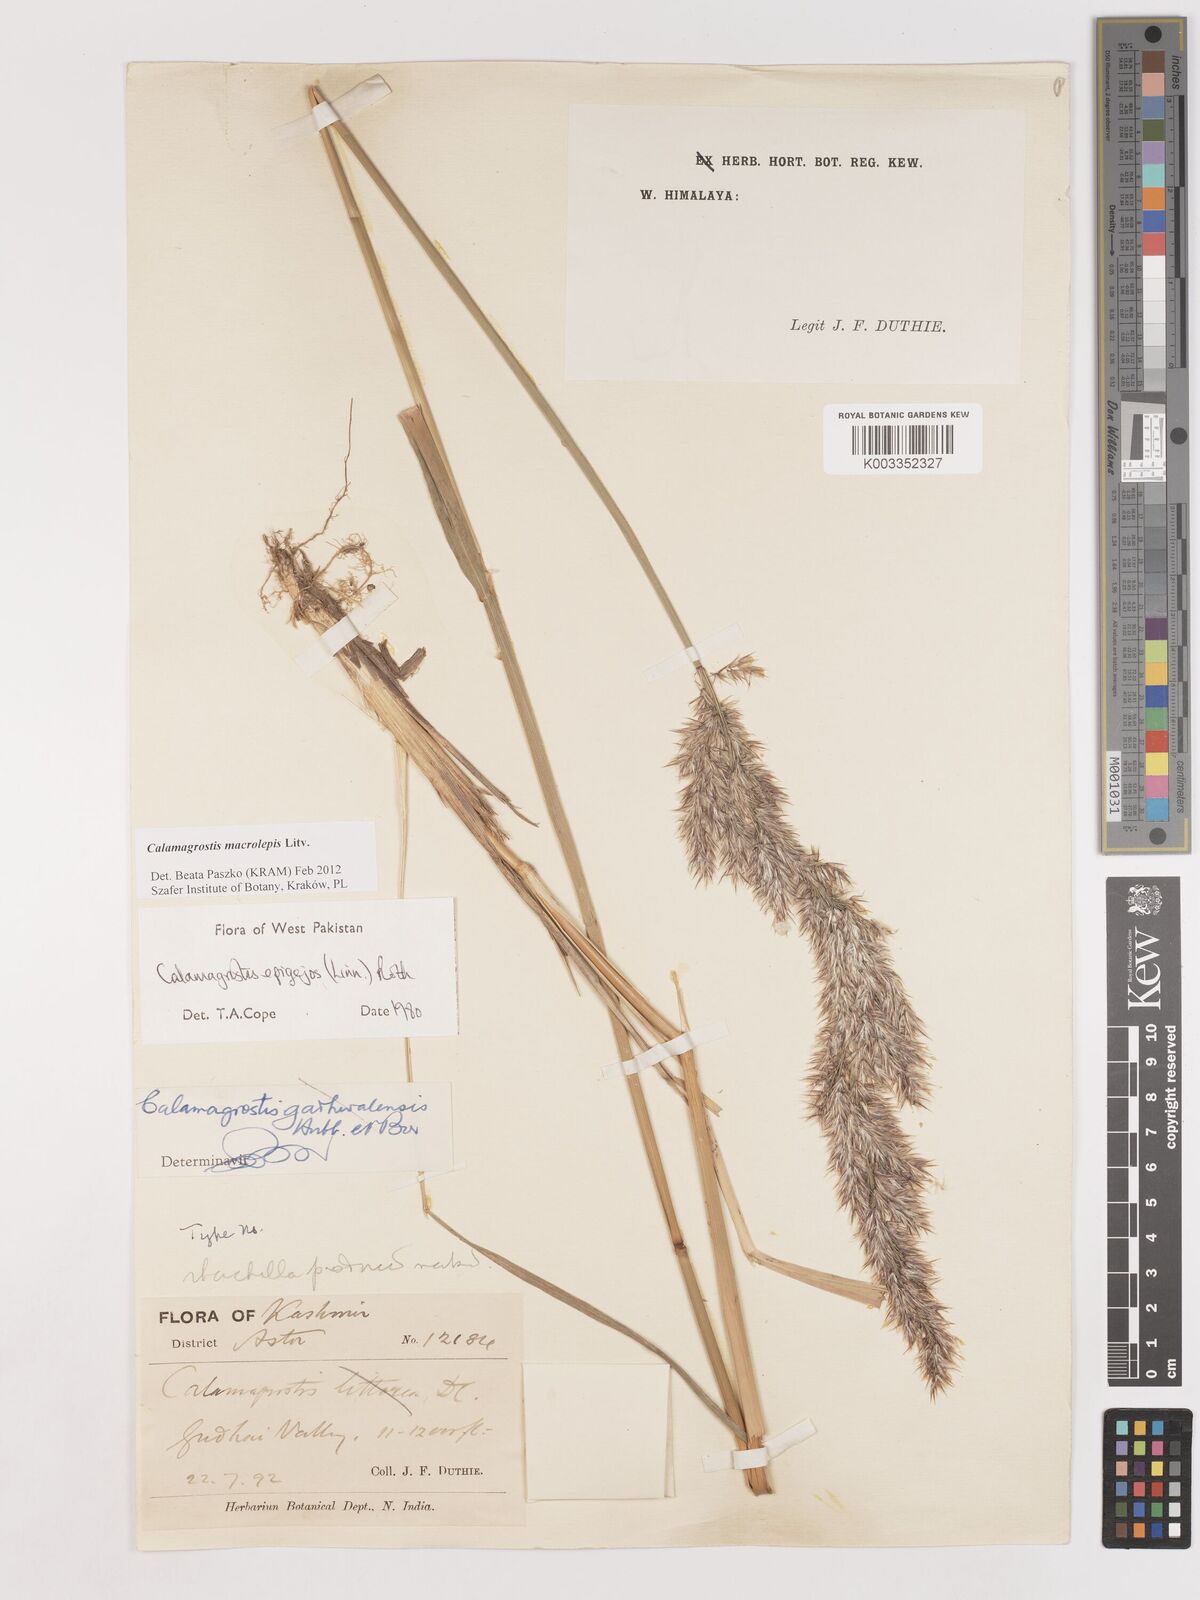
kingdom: Plantae
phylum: Tracheophyta
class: Liliopsida
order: Poales
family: Poaceae
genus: Calamagrostis
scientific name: Calamagrostis epigejos
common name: Wood small-reed
